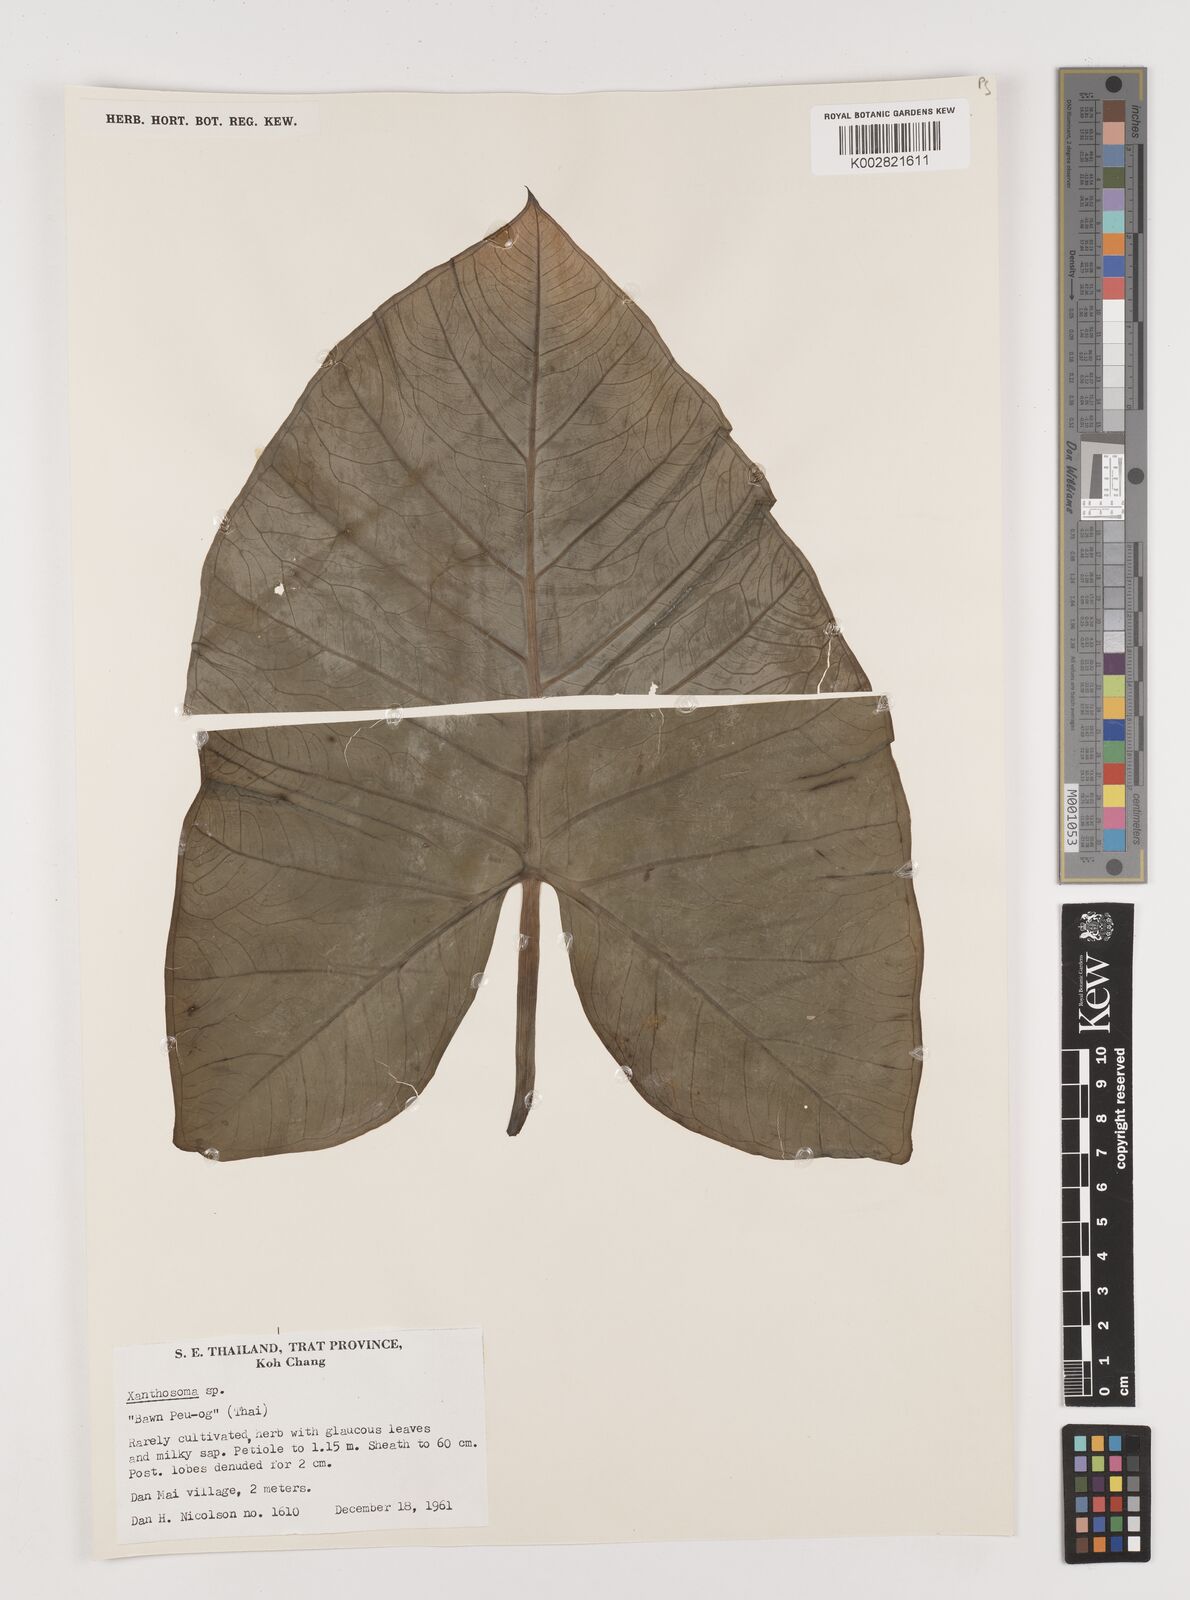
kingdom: Plantae
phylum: Tracheophyta
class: Liliopsida
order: Alismatales
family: Araceae
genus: Xanthosoma
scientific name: Xanthosoma sagittifolium
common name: Arrowleaf elephant's ear
